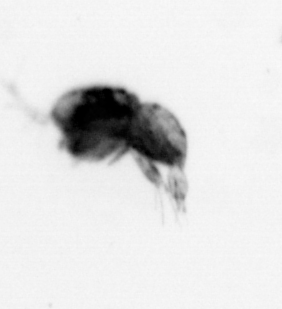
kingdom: Animalia
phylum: Arthropoda
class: Copepoda
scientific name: Copepoda
